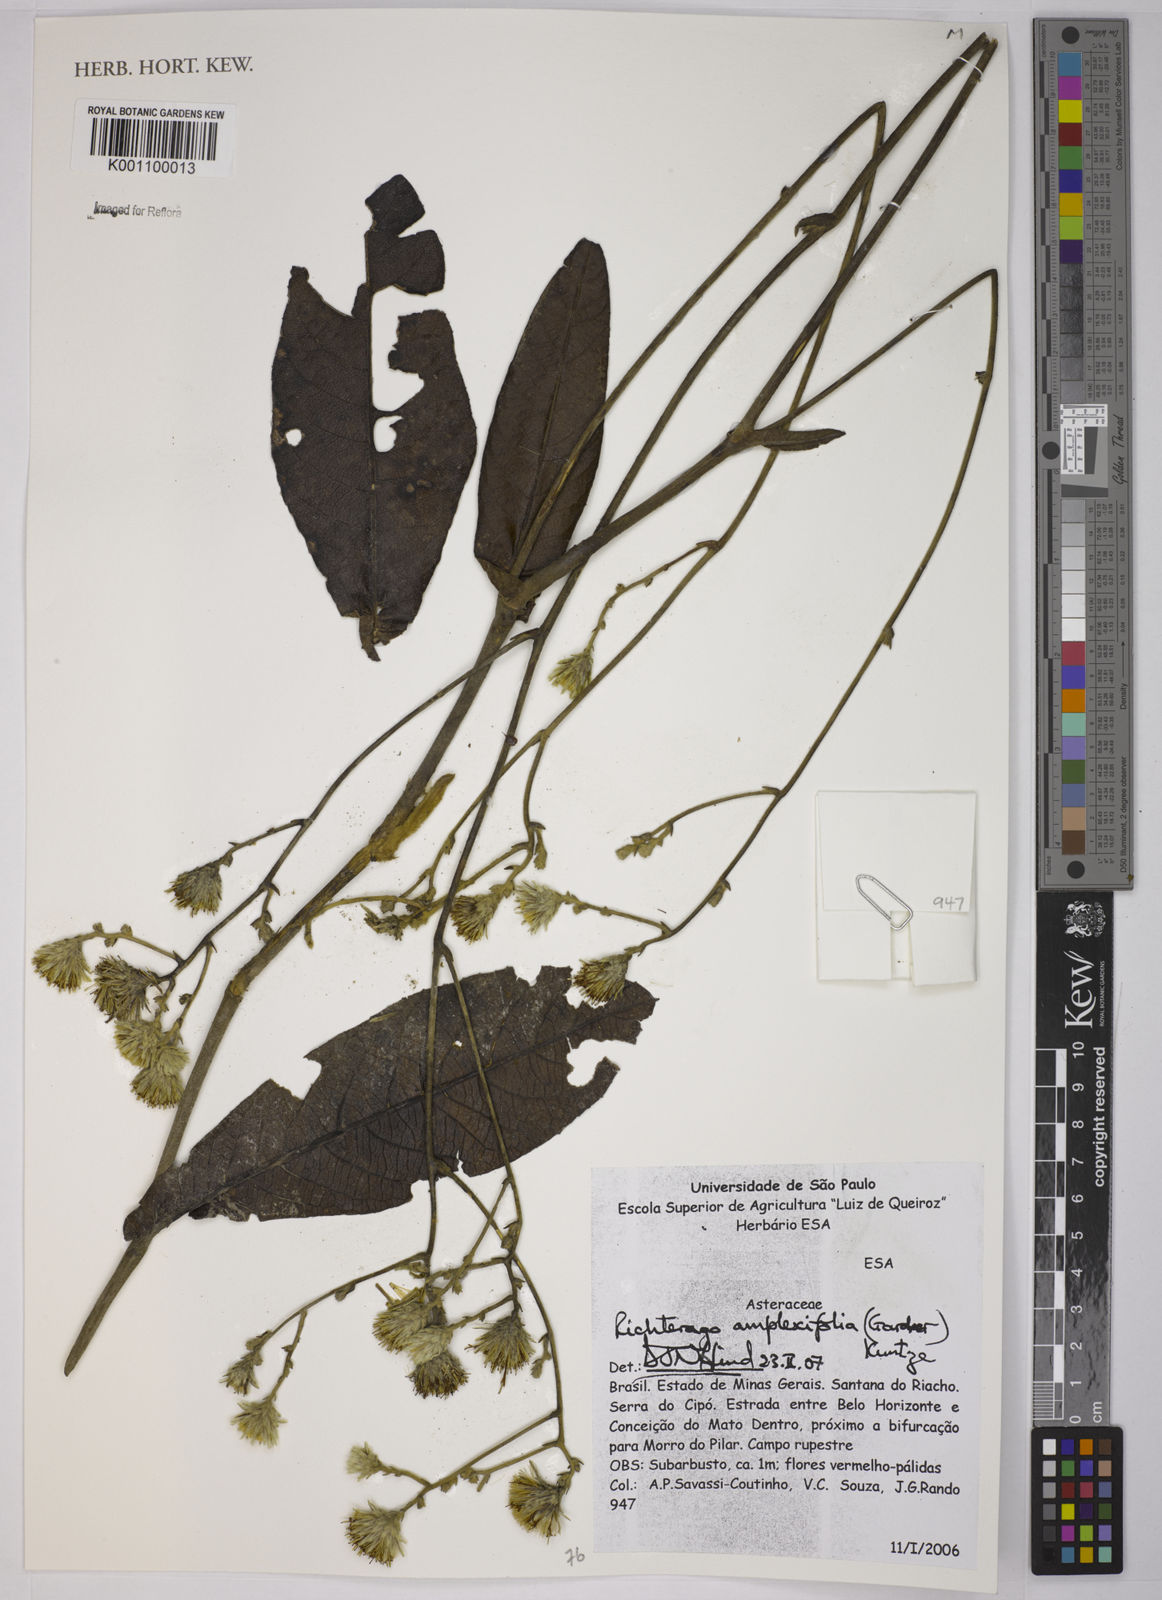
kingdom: Plantae
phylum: Tracheophyta
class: Magnoliopsida
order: Asterales
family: Asteraceae
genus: Richterago
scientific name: Richterago amplexifolia
